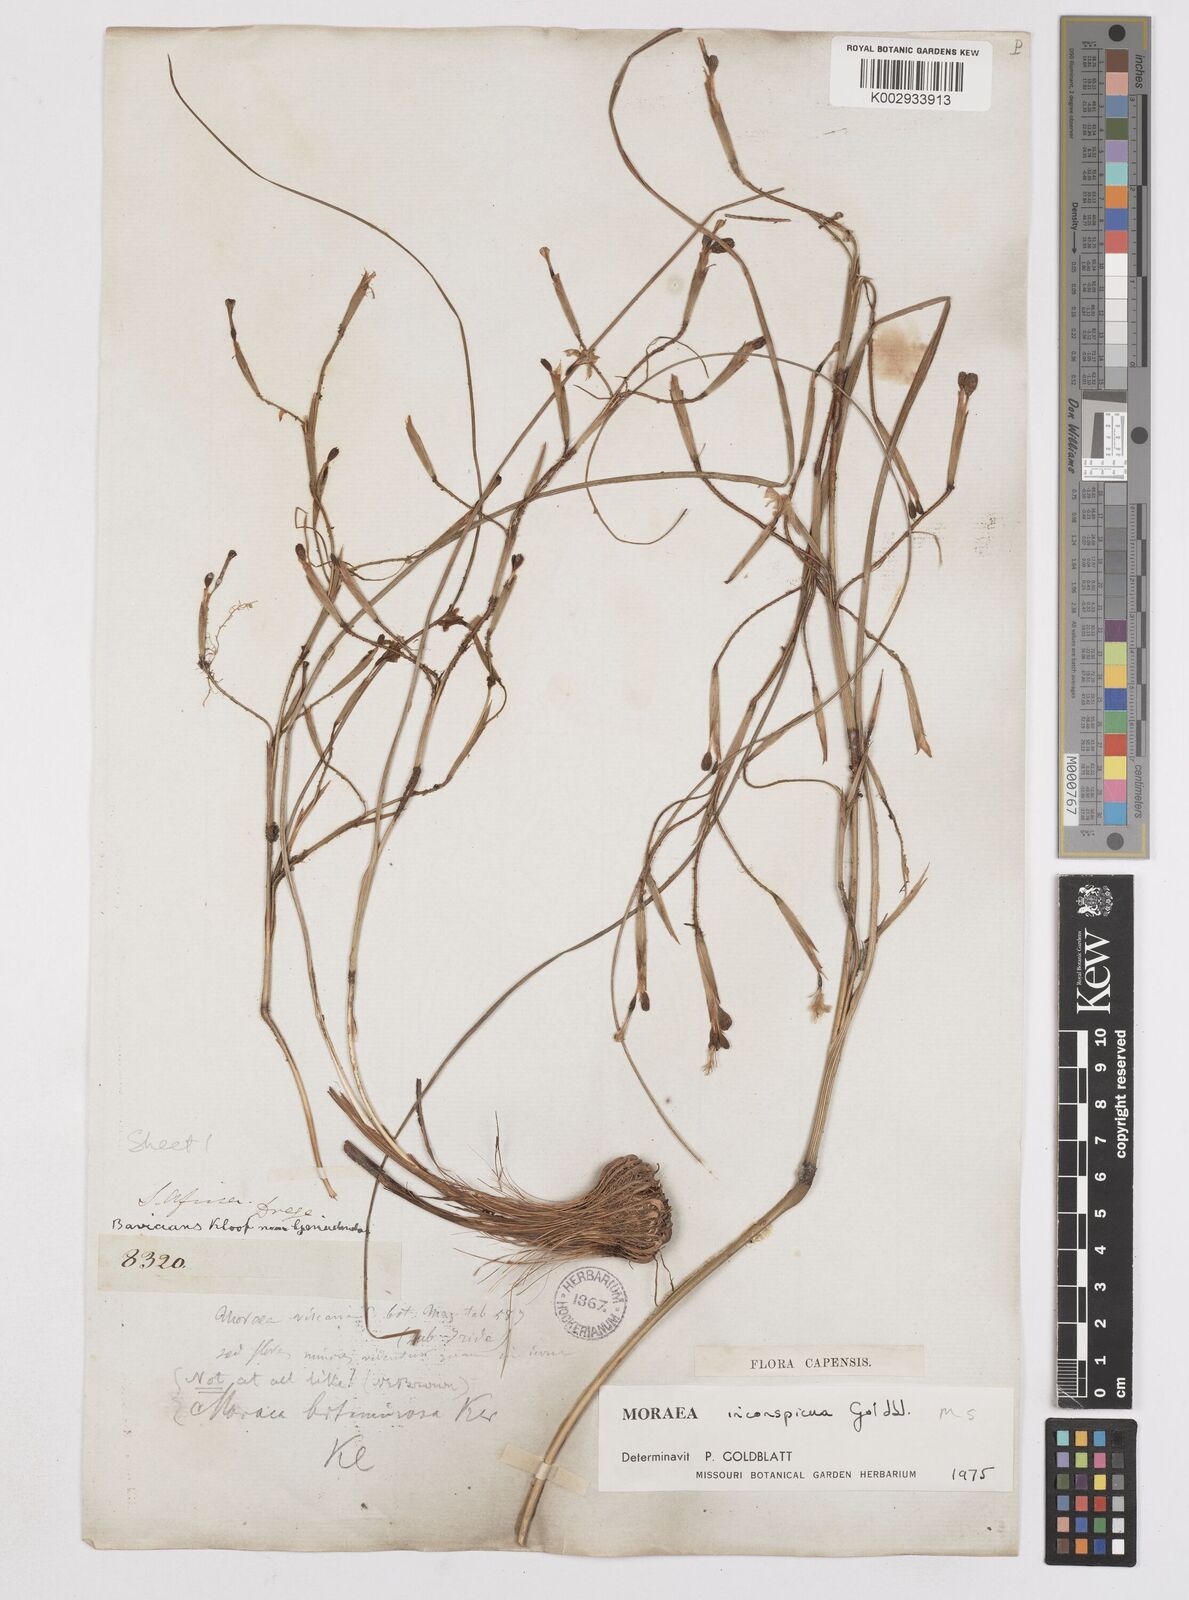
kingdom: Plantae
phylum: Tracheophyta
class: Liliopsida
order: Asparagales
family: Iridaceae
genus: Moraea
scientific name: Moraea inconspicua
